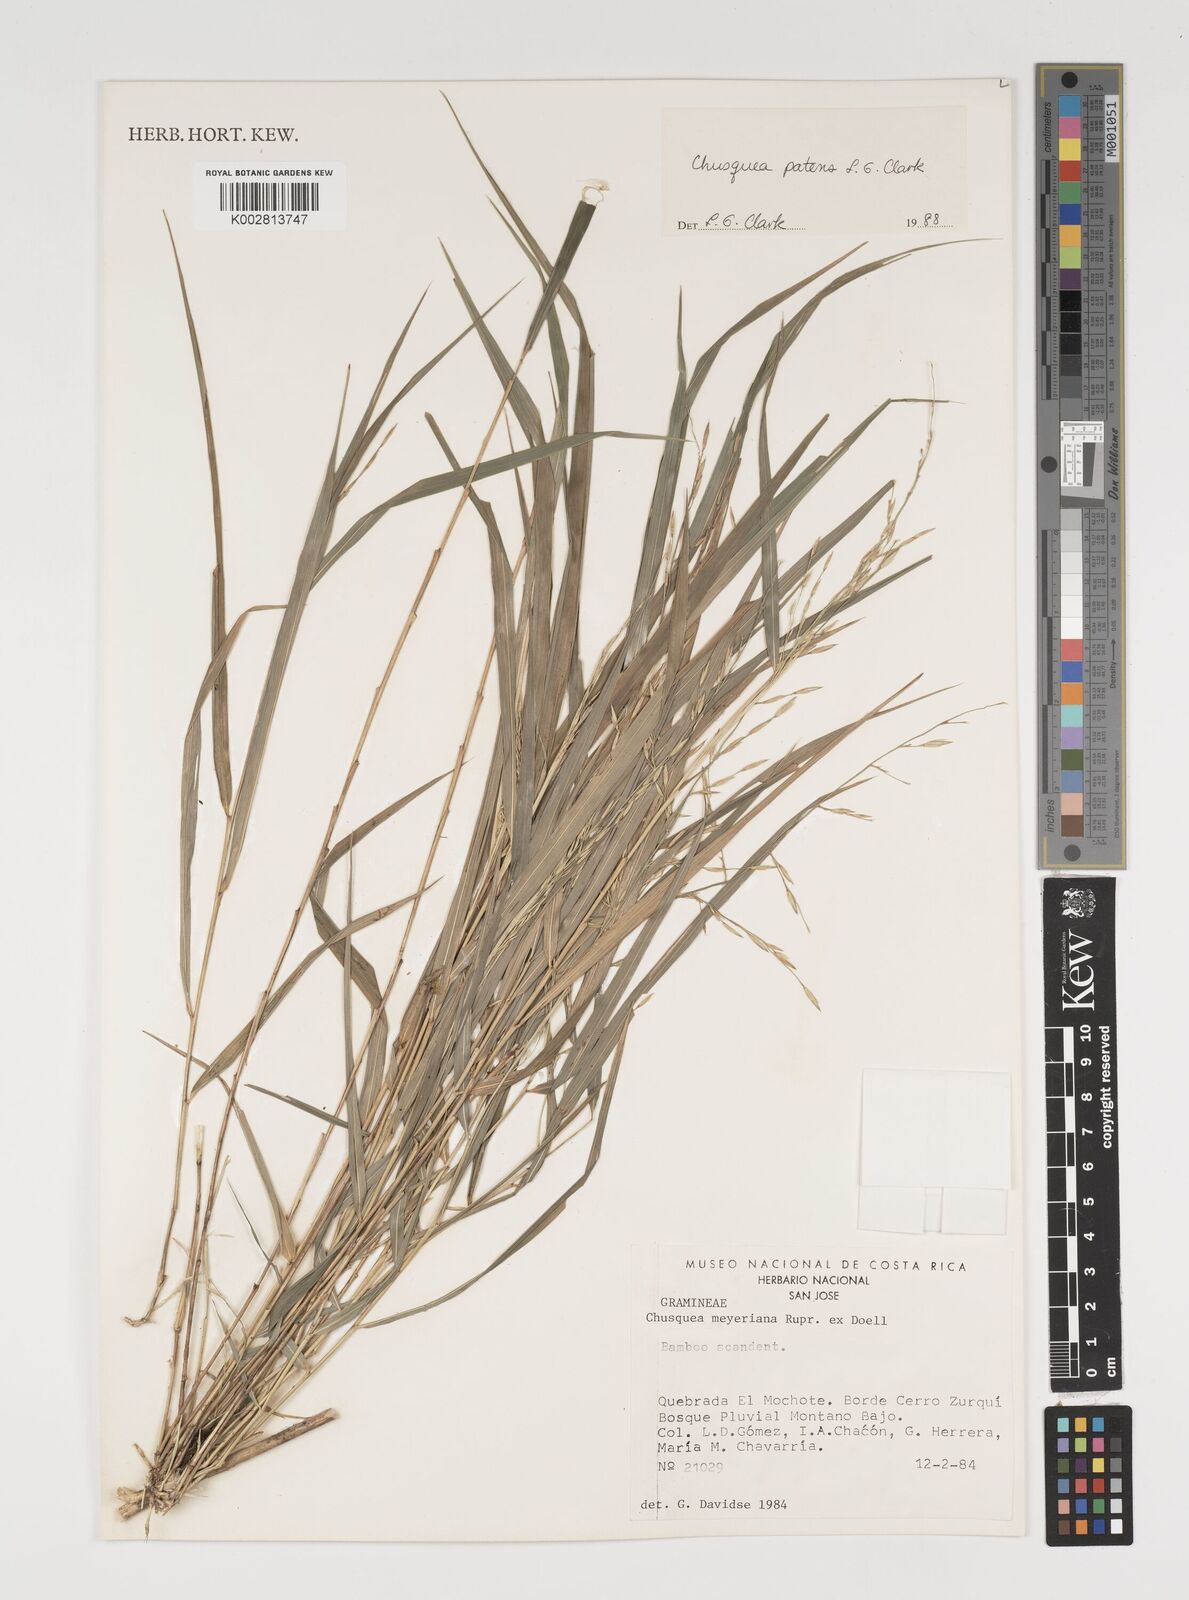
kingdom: Plantae
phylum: Tracheophyta
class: Liliopsida
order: Poales
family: Poaceae
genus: Chusquea
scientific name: Chusquea patens
